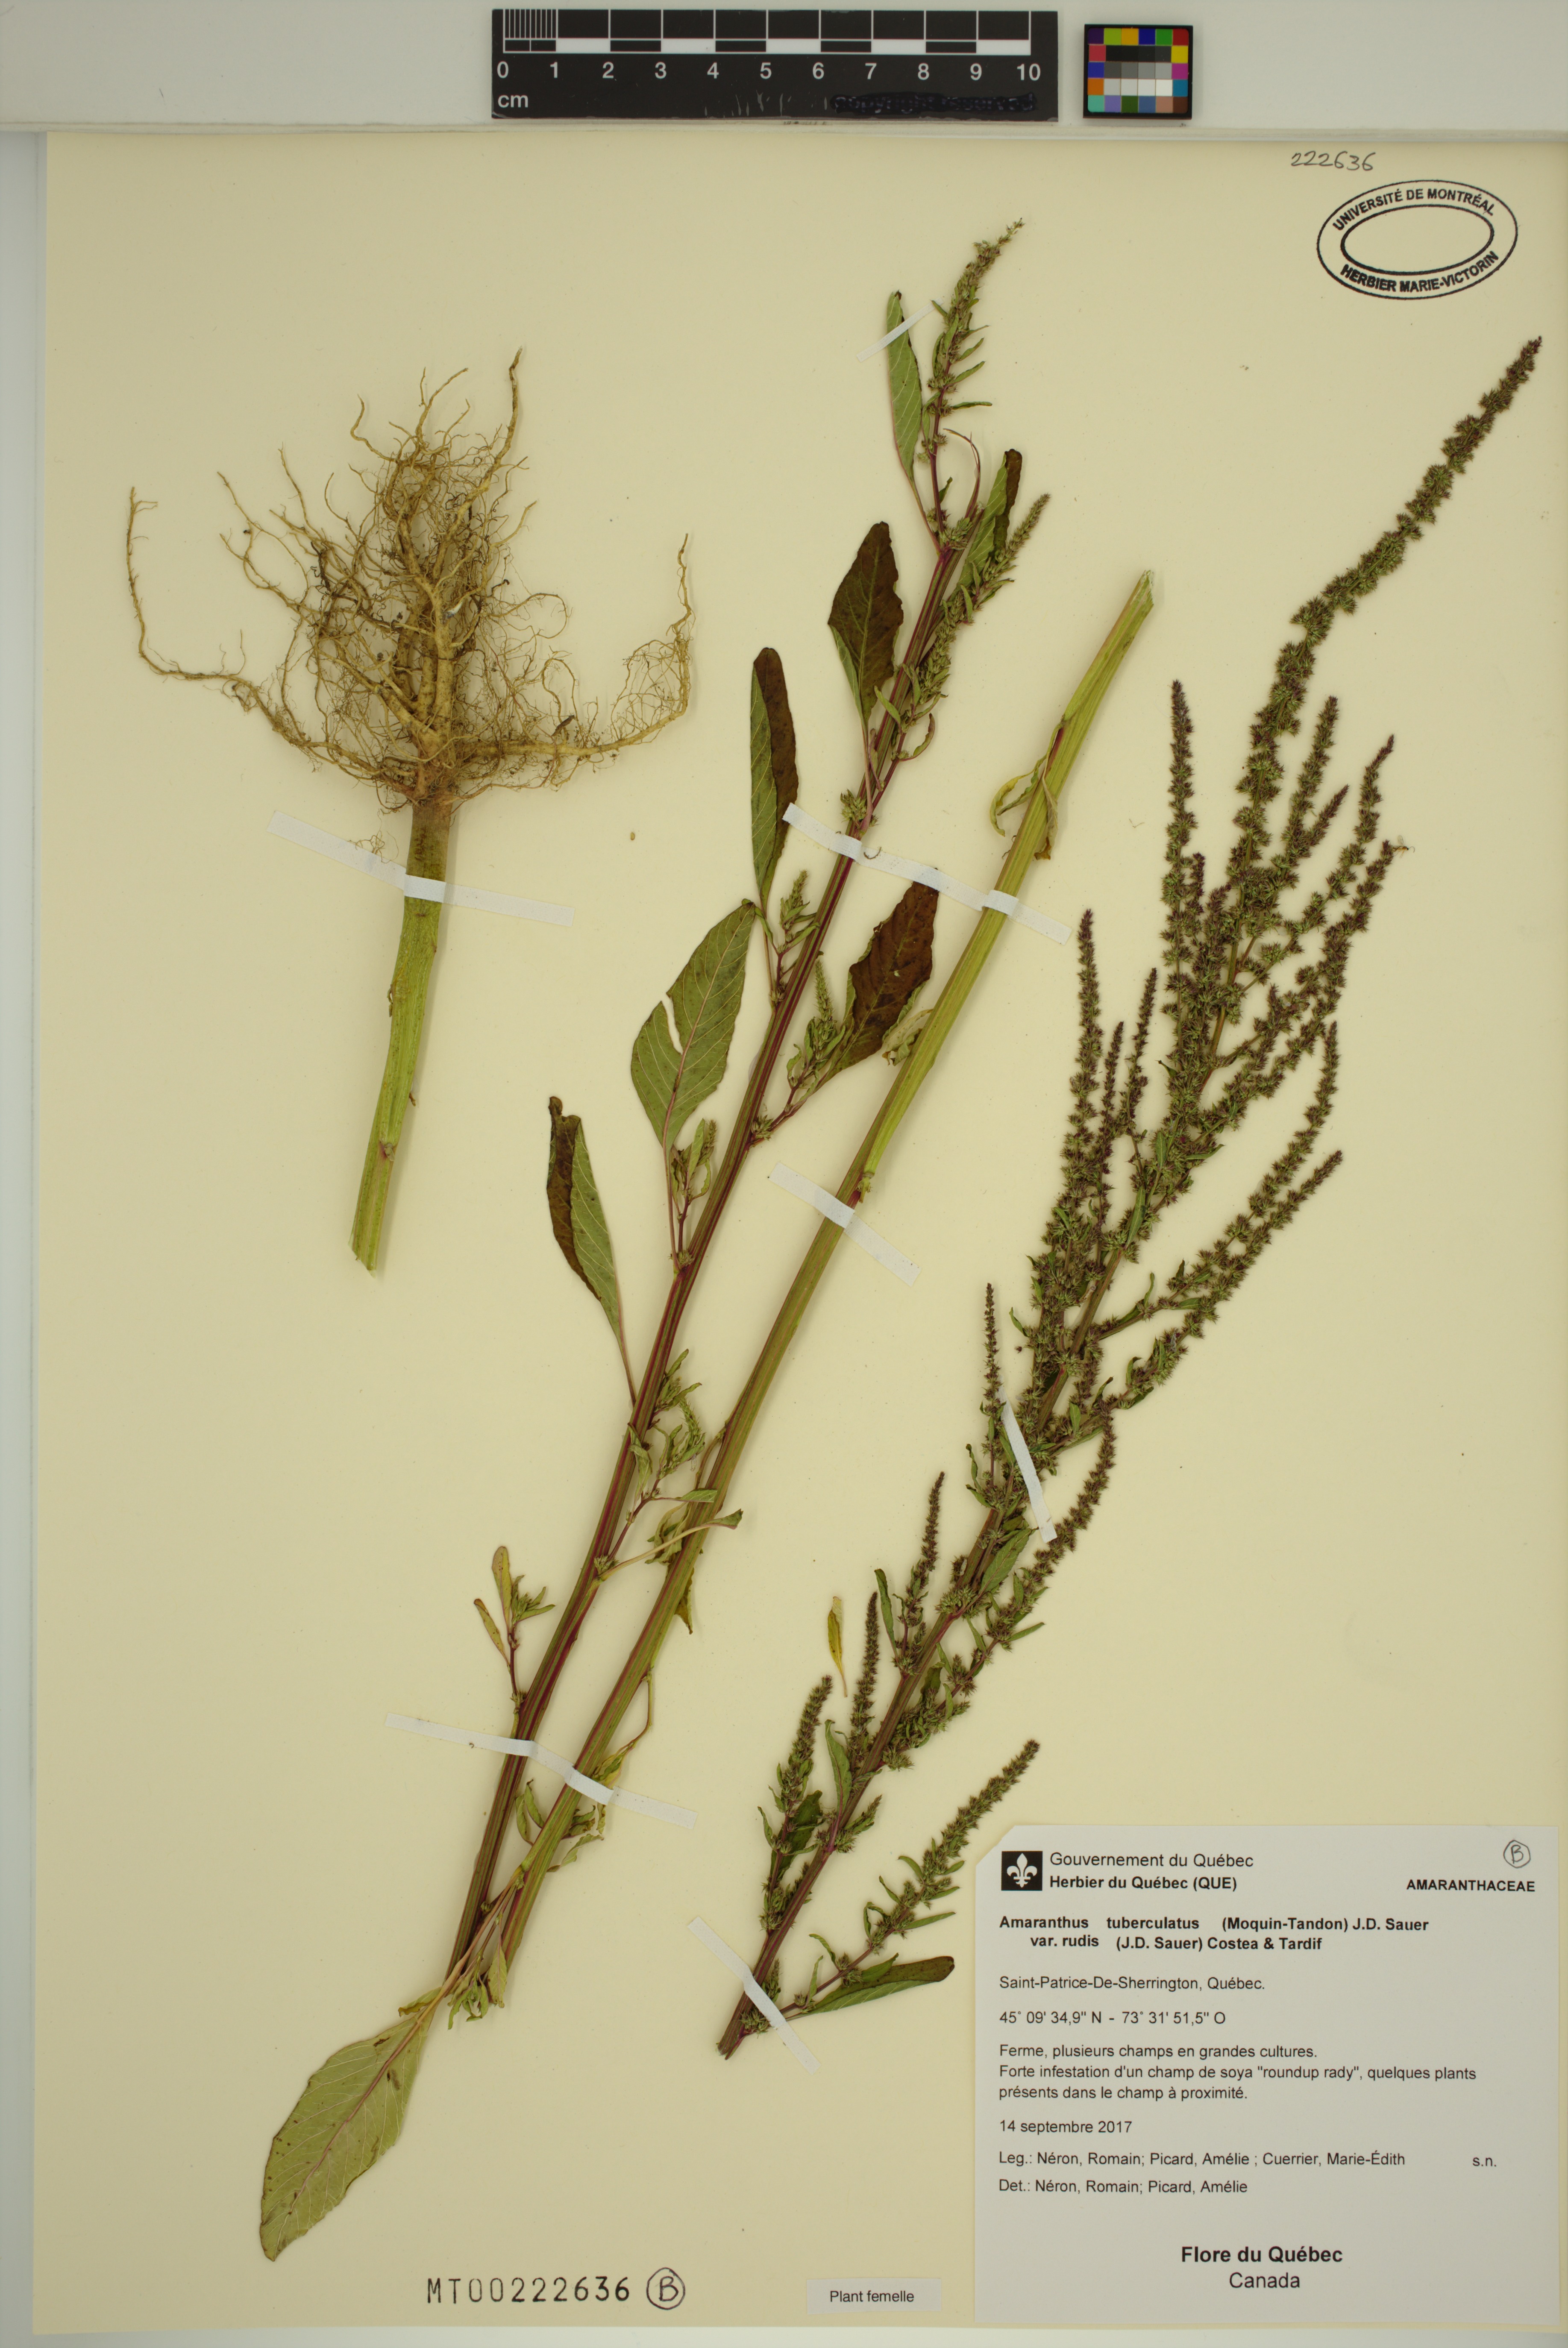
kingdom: Plantae
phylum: Tracheophyta
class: Magnoliopsida
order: Caryophyllales
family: Amaranthaceae
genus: Amaranthus
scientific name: Amaranthus tuberculatus
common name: Rough-fruit amaranth
